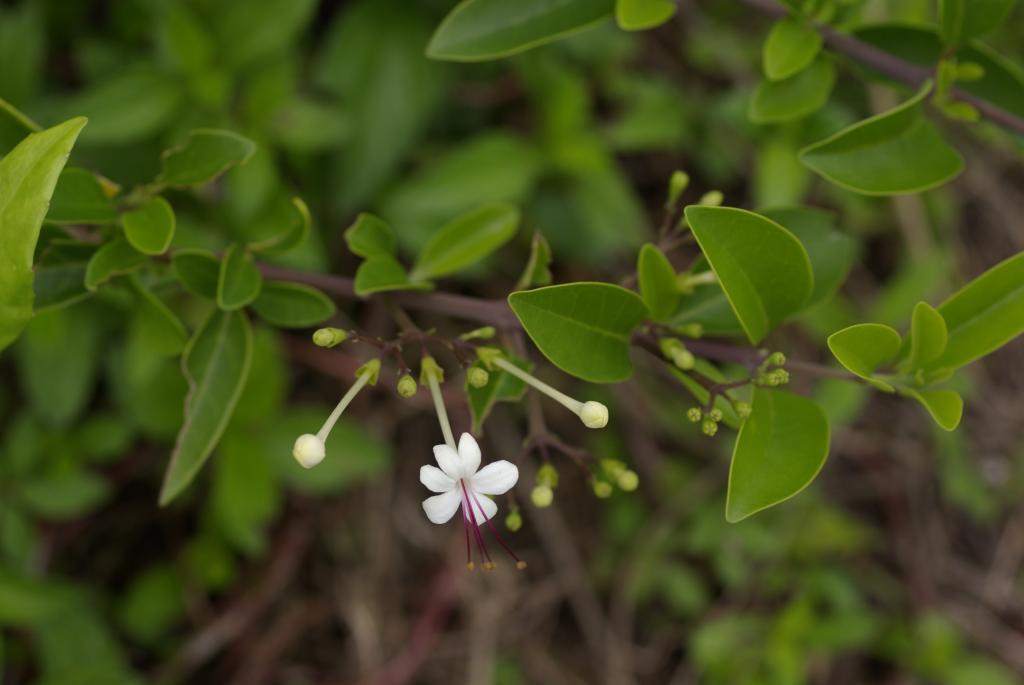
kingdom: Plantae
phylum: Tracheophyta
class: Magnoliopsida
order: Lamiales
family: Lamiaceae
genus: Volkameria
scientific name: Volkameria inermis
